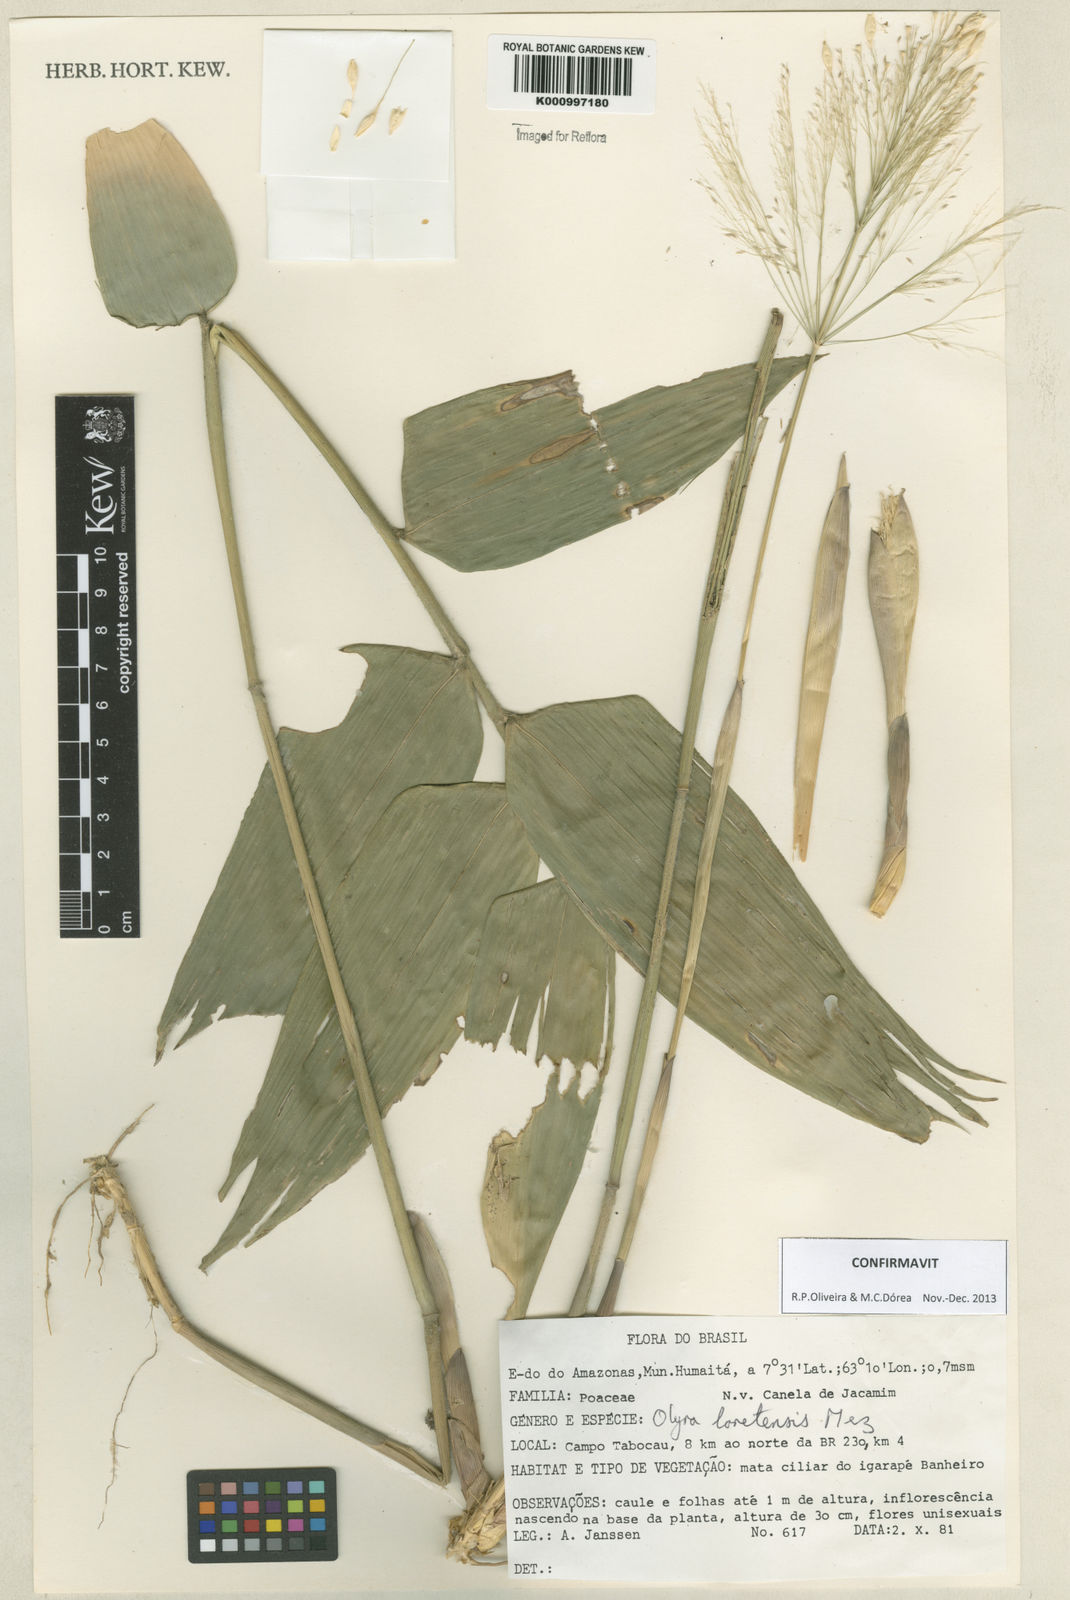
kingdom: Plantae
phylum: Tracheophyta
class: Liliopsida
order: Poales
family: Poaceae
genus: Olyra
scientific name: Olyra loretensis
